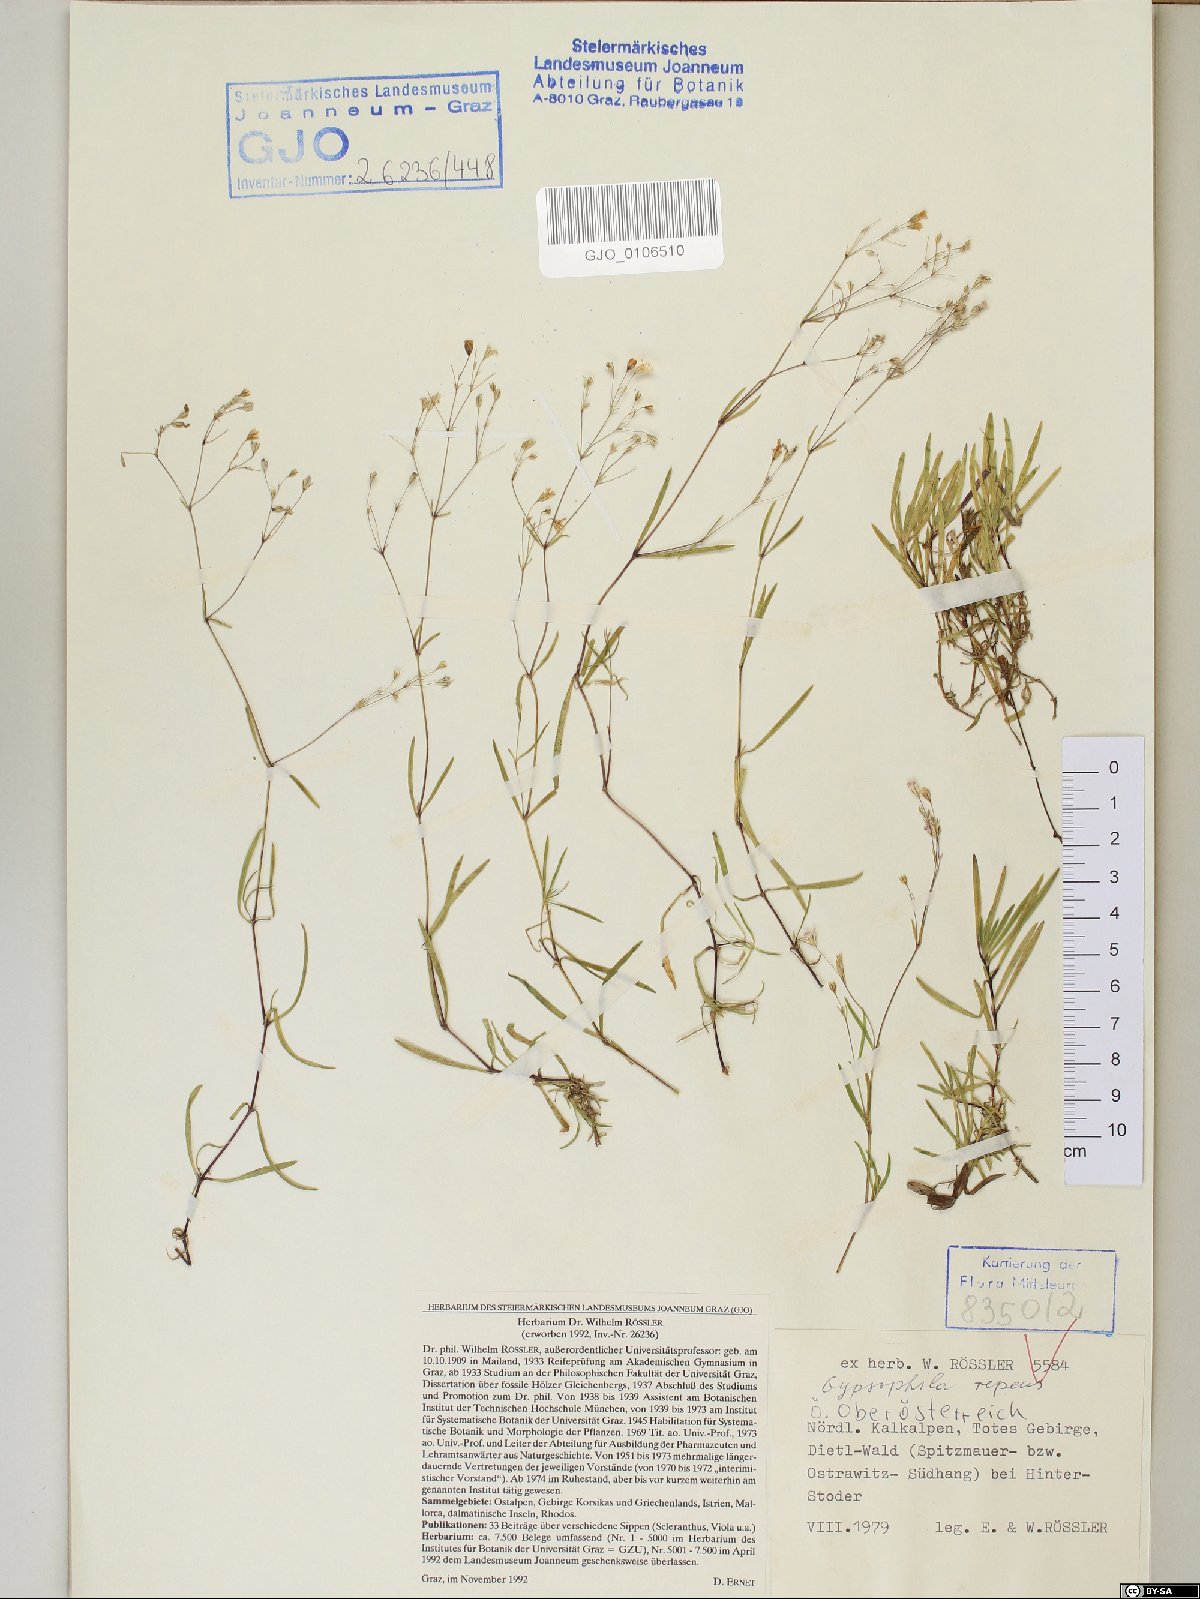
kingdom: Plantae
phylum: Tracheophyta
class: Magnoliopsida
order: Caryophyllales
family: Caryophyllaceae
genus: Gypsophila
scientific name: Gypsophila repens
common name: Creeping baby's-breath
